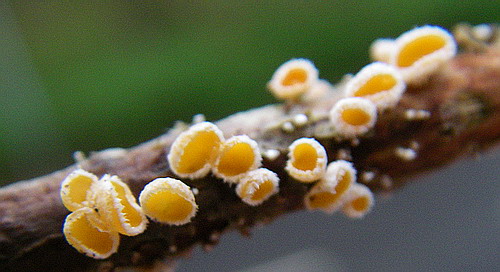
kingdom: Fungi
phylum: Ascomycota
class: Leotiomycetes
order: Helotiales
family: Lachnaceae
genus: Capitotricha
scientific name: Capitotricha bicolor
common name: prægtig frynseskive
